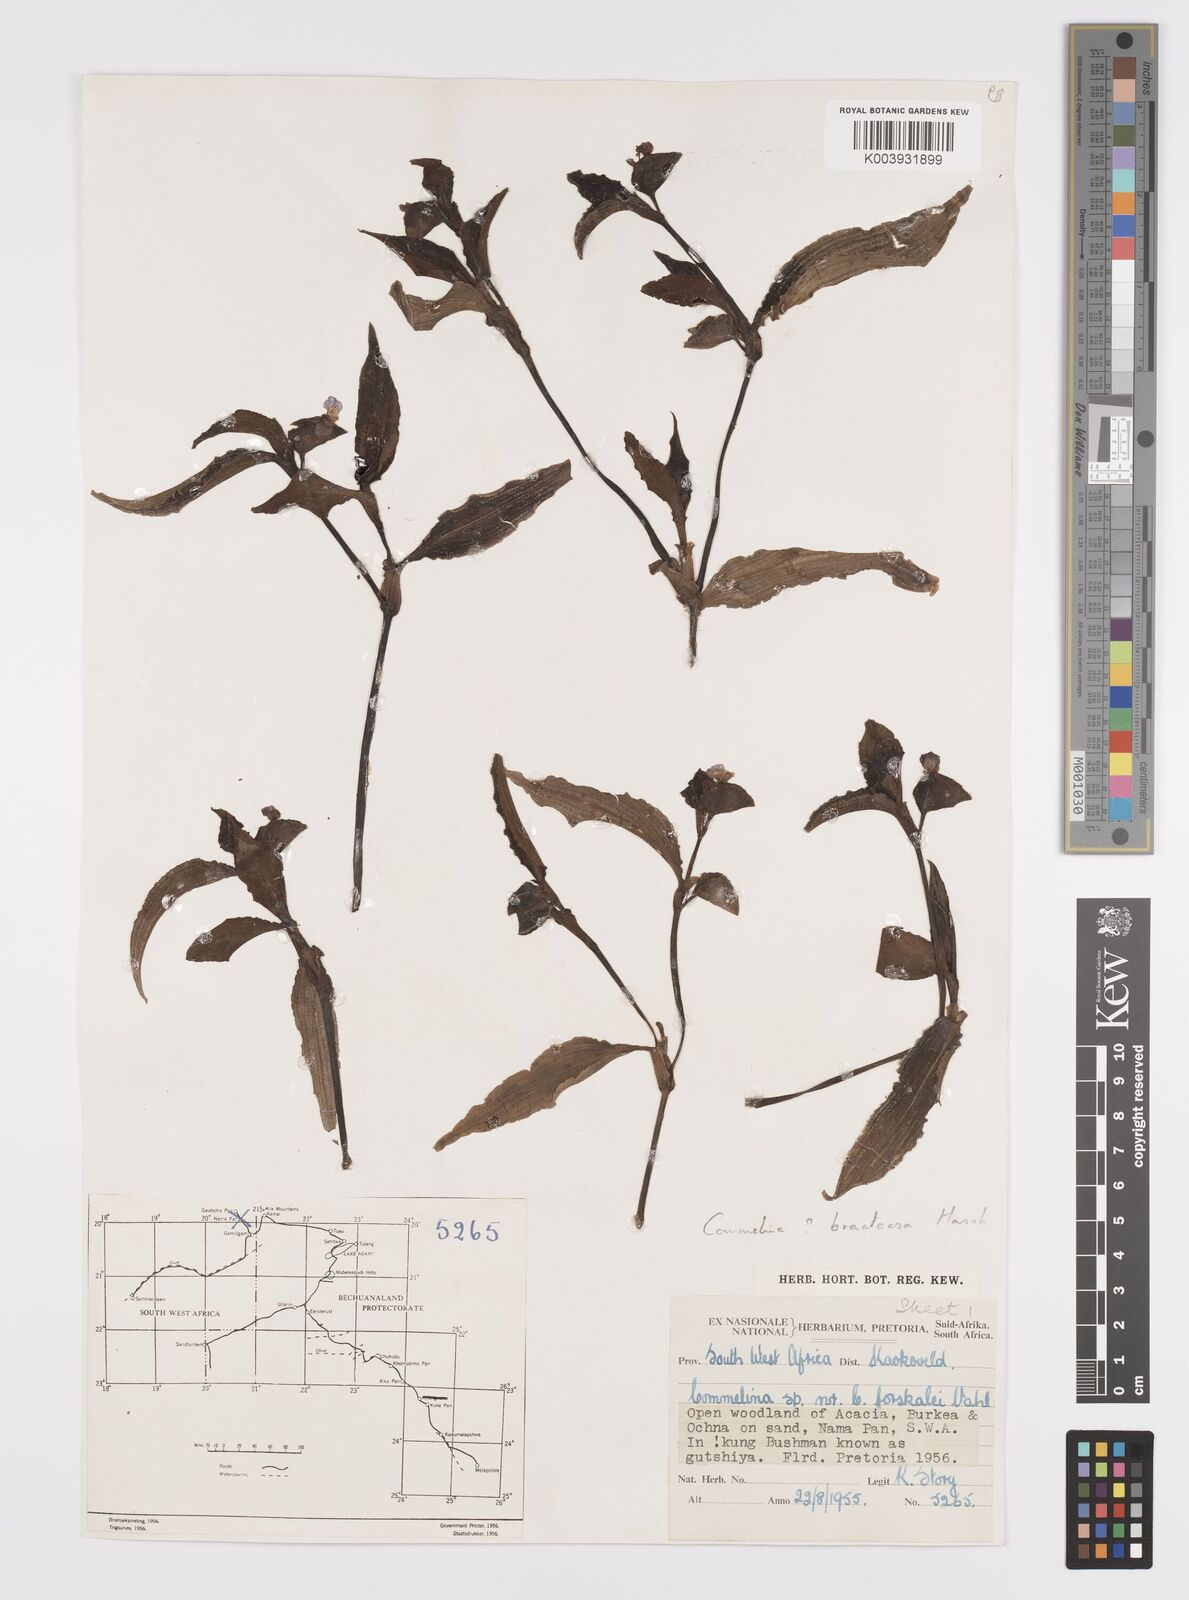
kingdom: Plantae
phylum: Tracheophyta
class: Liliopsida
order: Commelinales
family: Commelinaceae
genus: Commelina
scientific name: Commelina zambesica
